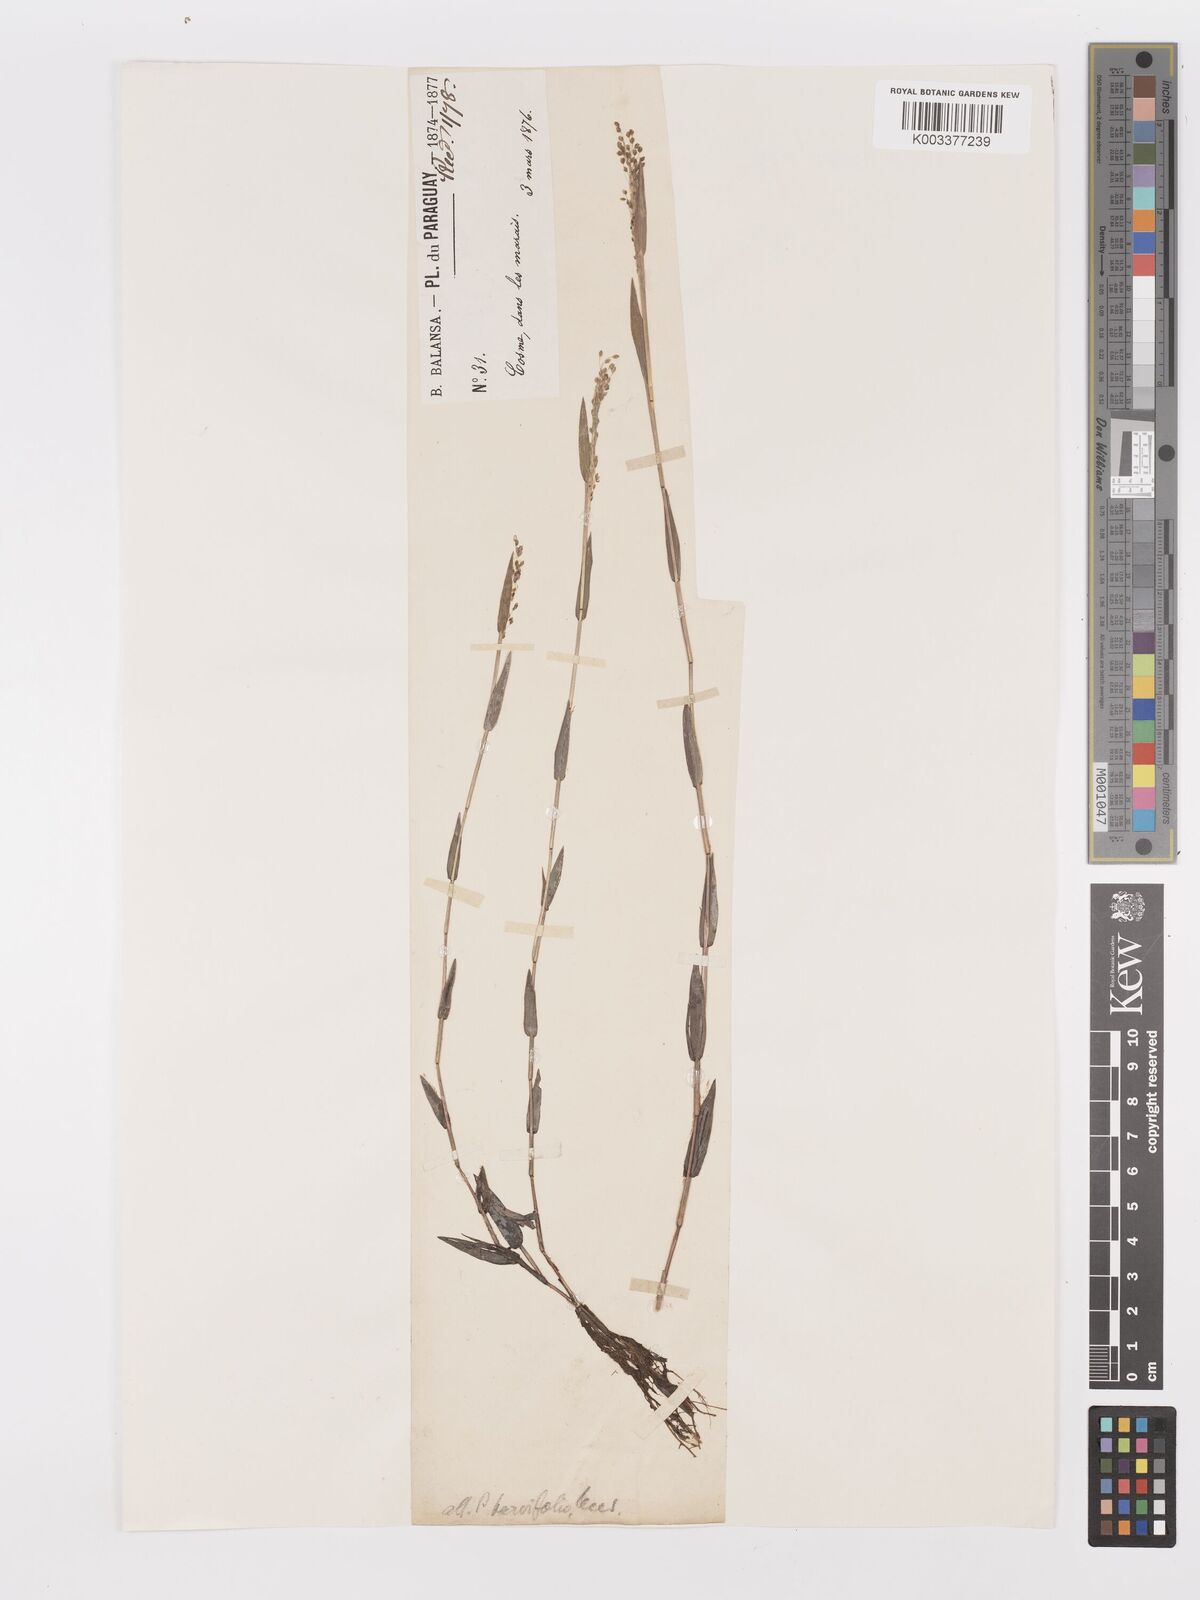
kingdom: Plantae
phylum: Tracheophyta
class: Liliopsida
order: Poales
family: Poaceae
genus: Trichanthecium
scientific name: Trichanthecium schwackeanum
